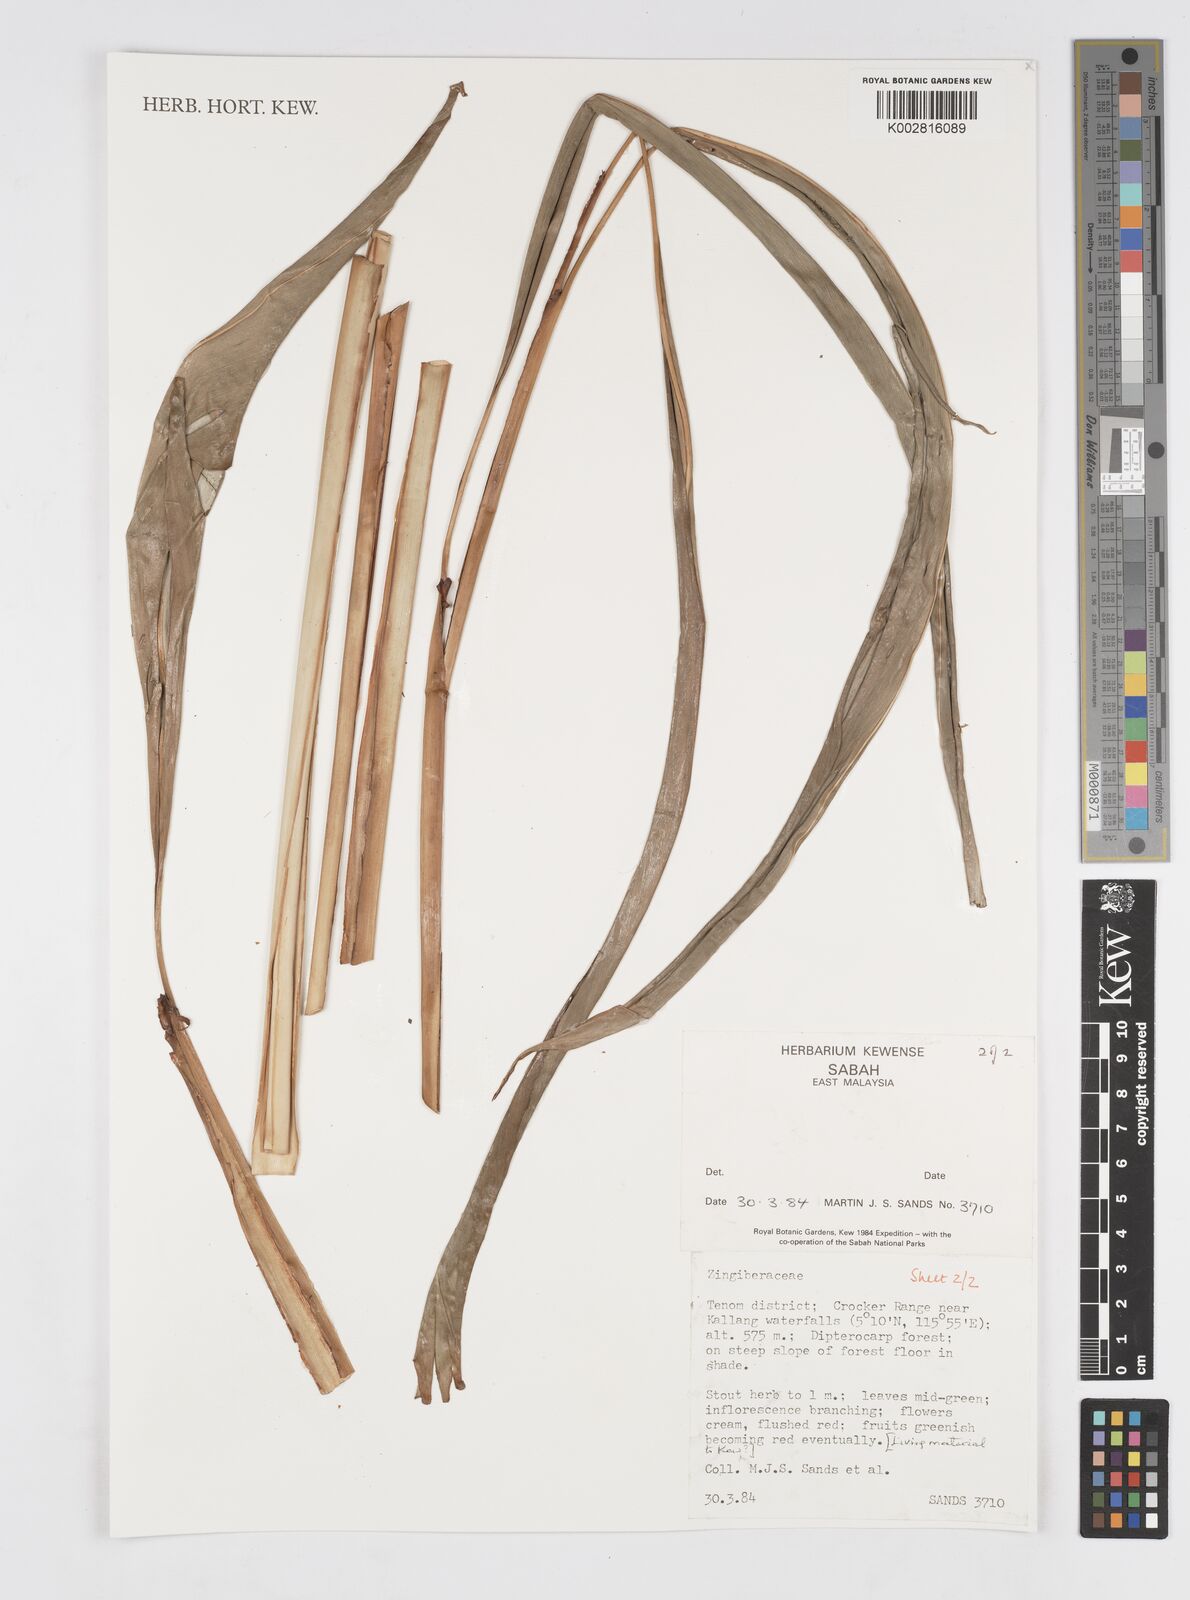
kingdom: Plantae
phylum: Tracheophyta
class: Liliopsida
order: Zingiberales
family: Zingiberaceae
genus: Alpinia
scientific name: Alpinia
